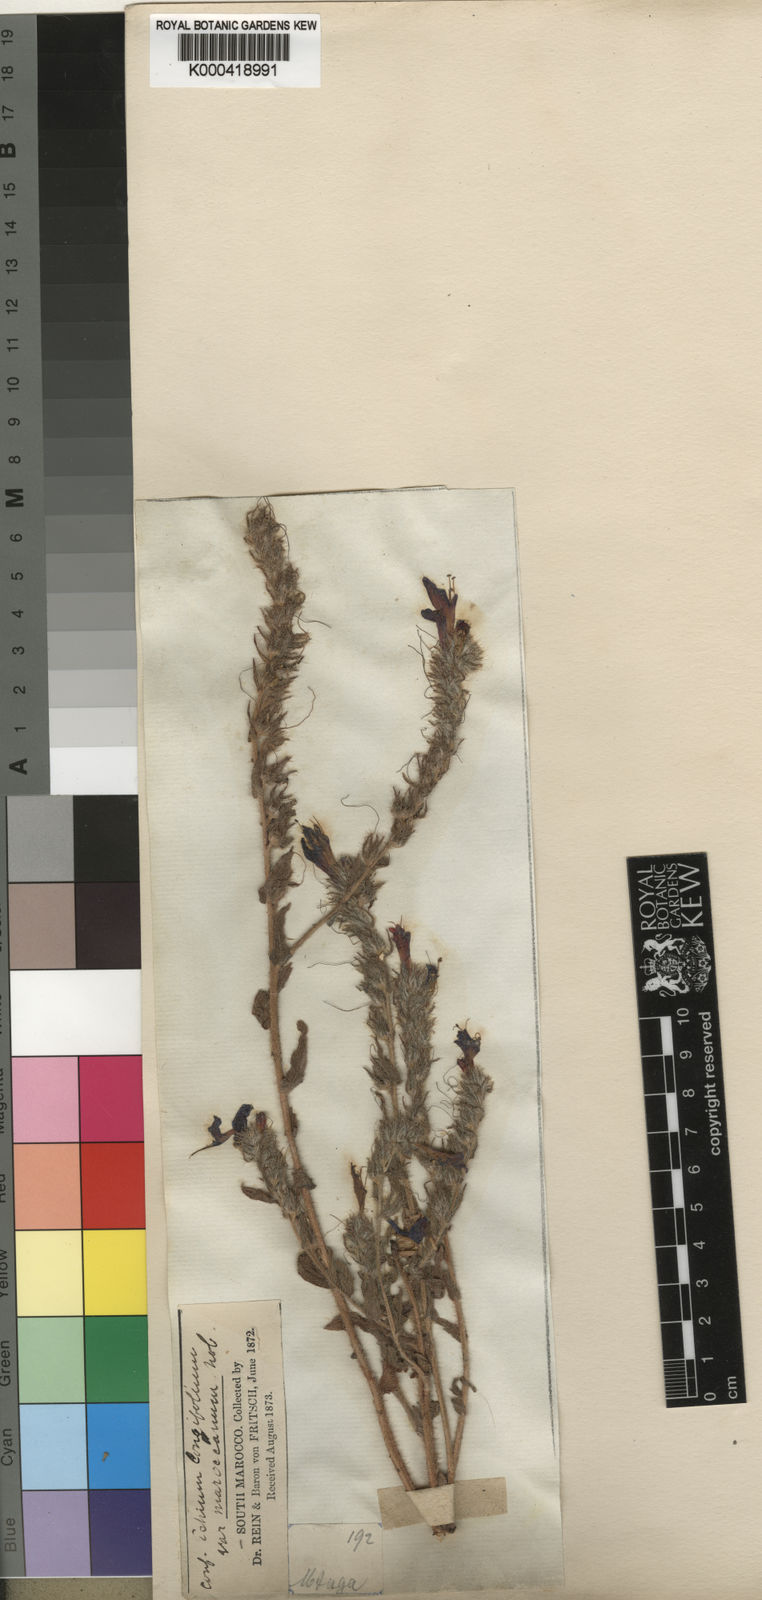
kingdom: Plantae
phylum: Tracheophyta
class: Magnoliopsida
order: Boraginales
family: Boraginaceae
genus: Echium
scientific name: Echium longifolium
